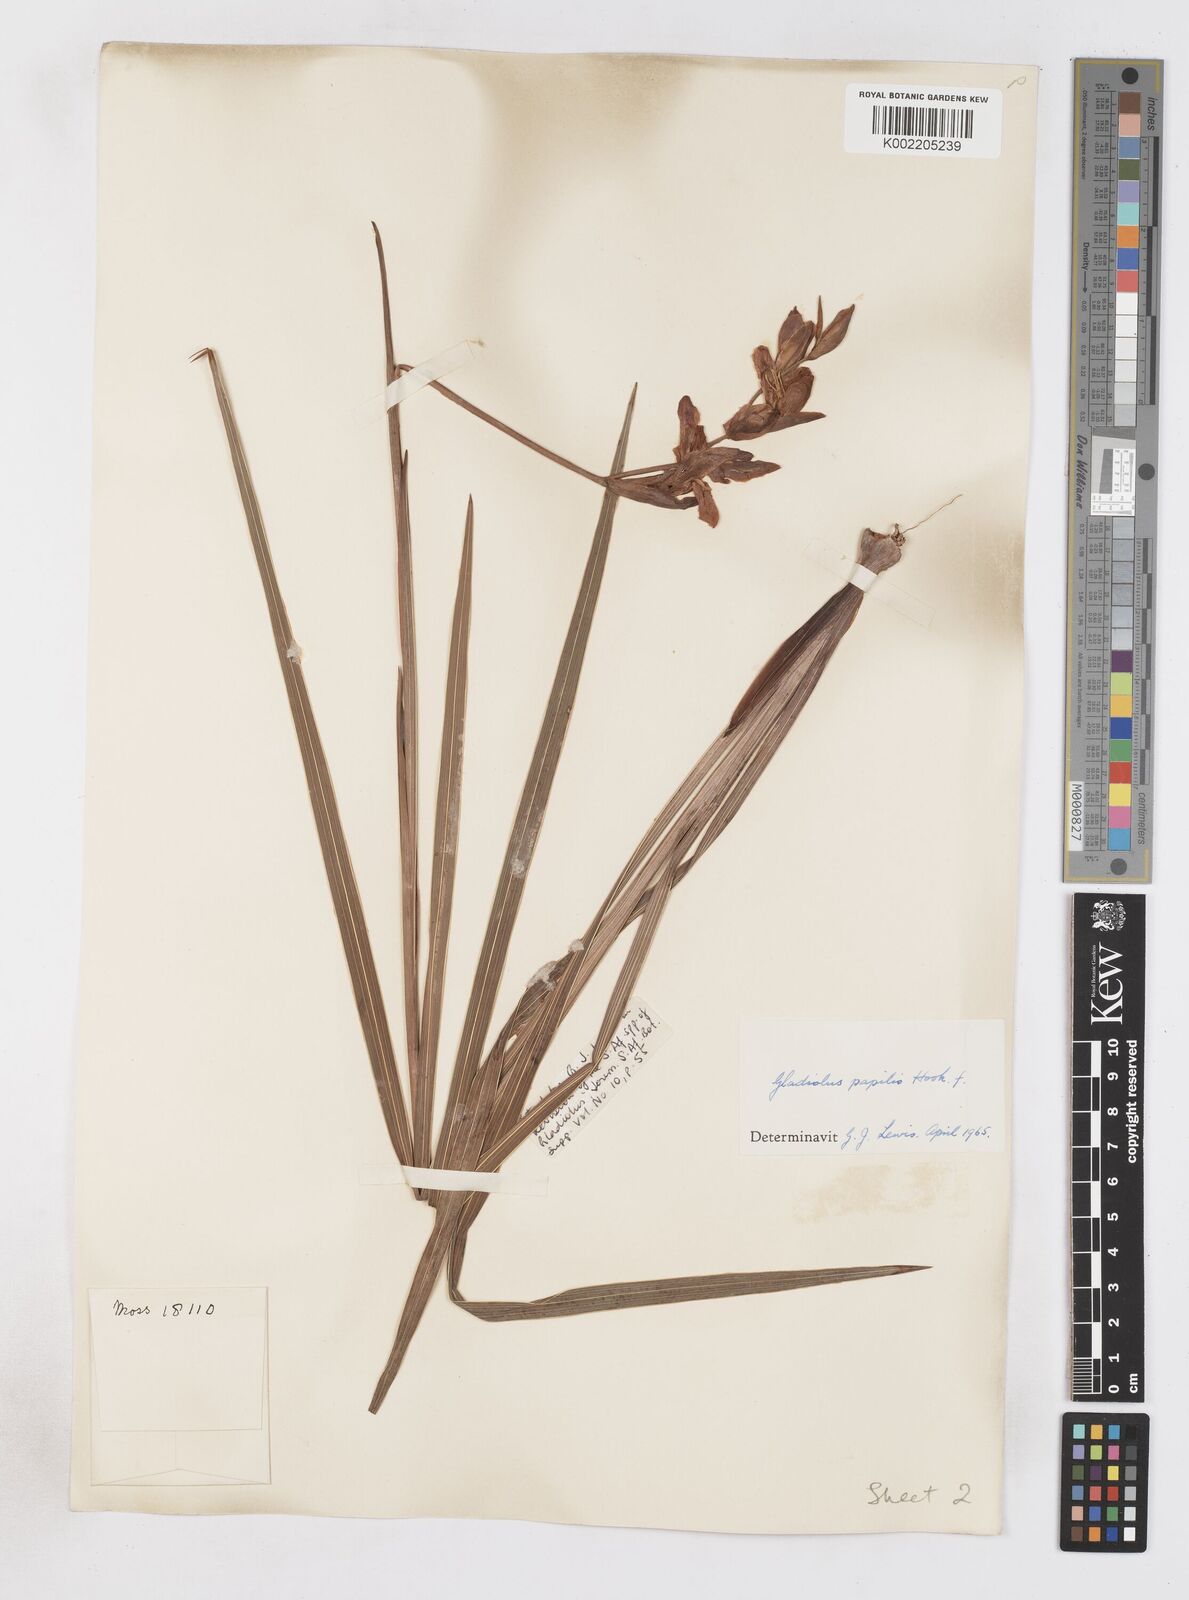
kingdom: Plantae
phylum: Tracheophyta
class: Liliopsida
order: Asparagales
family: Iridaceae
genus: Gladiolus
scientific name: Gladiolus papilio
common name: Goldblotch gladiolus
